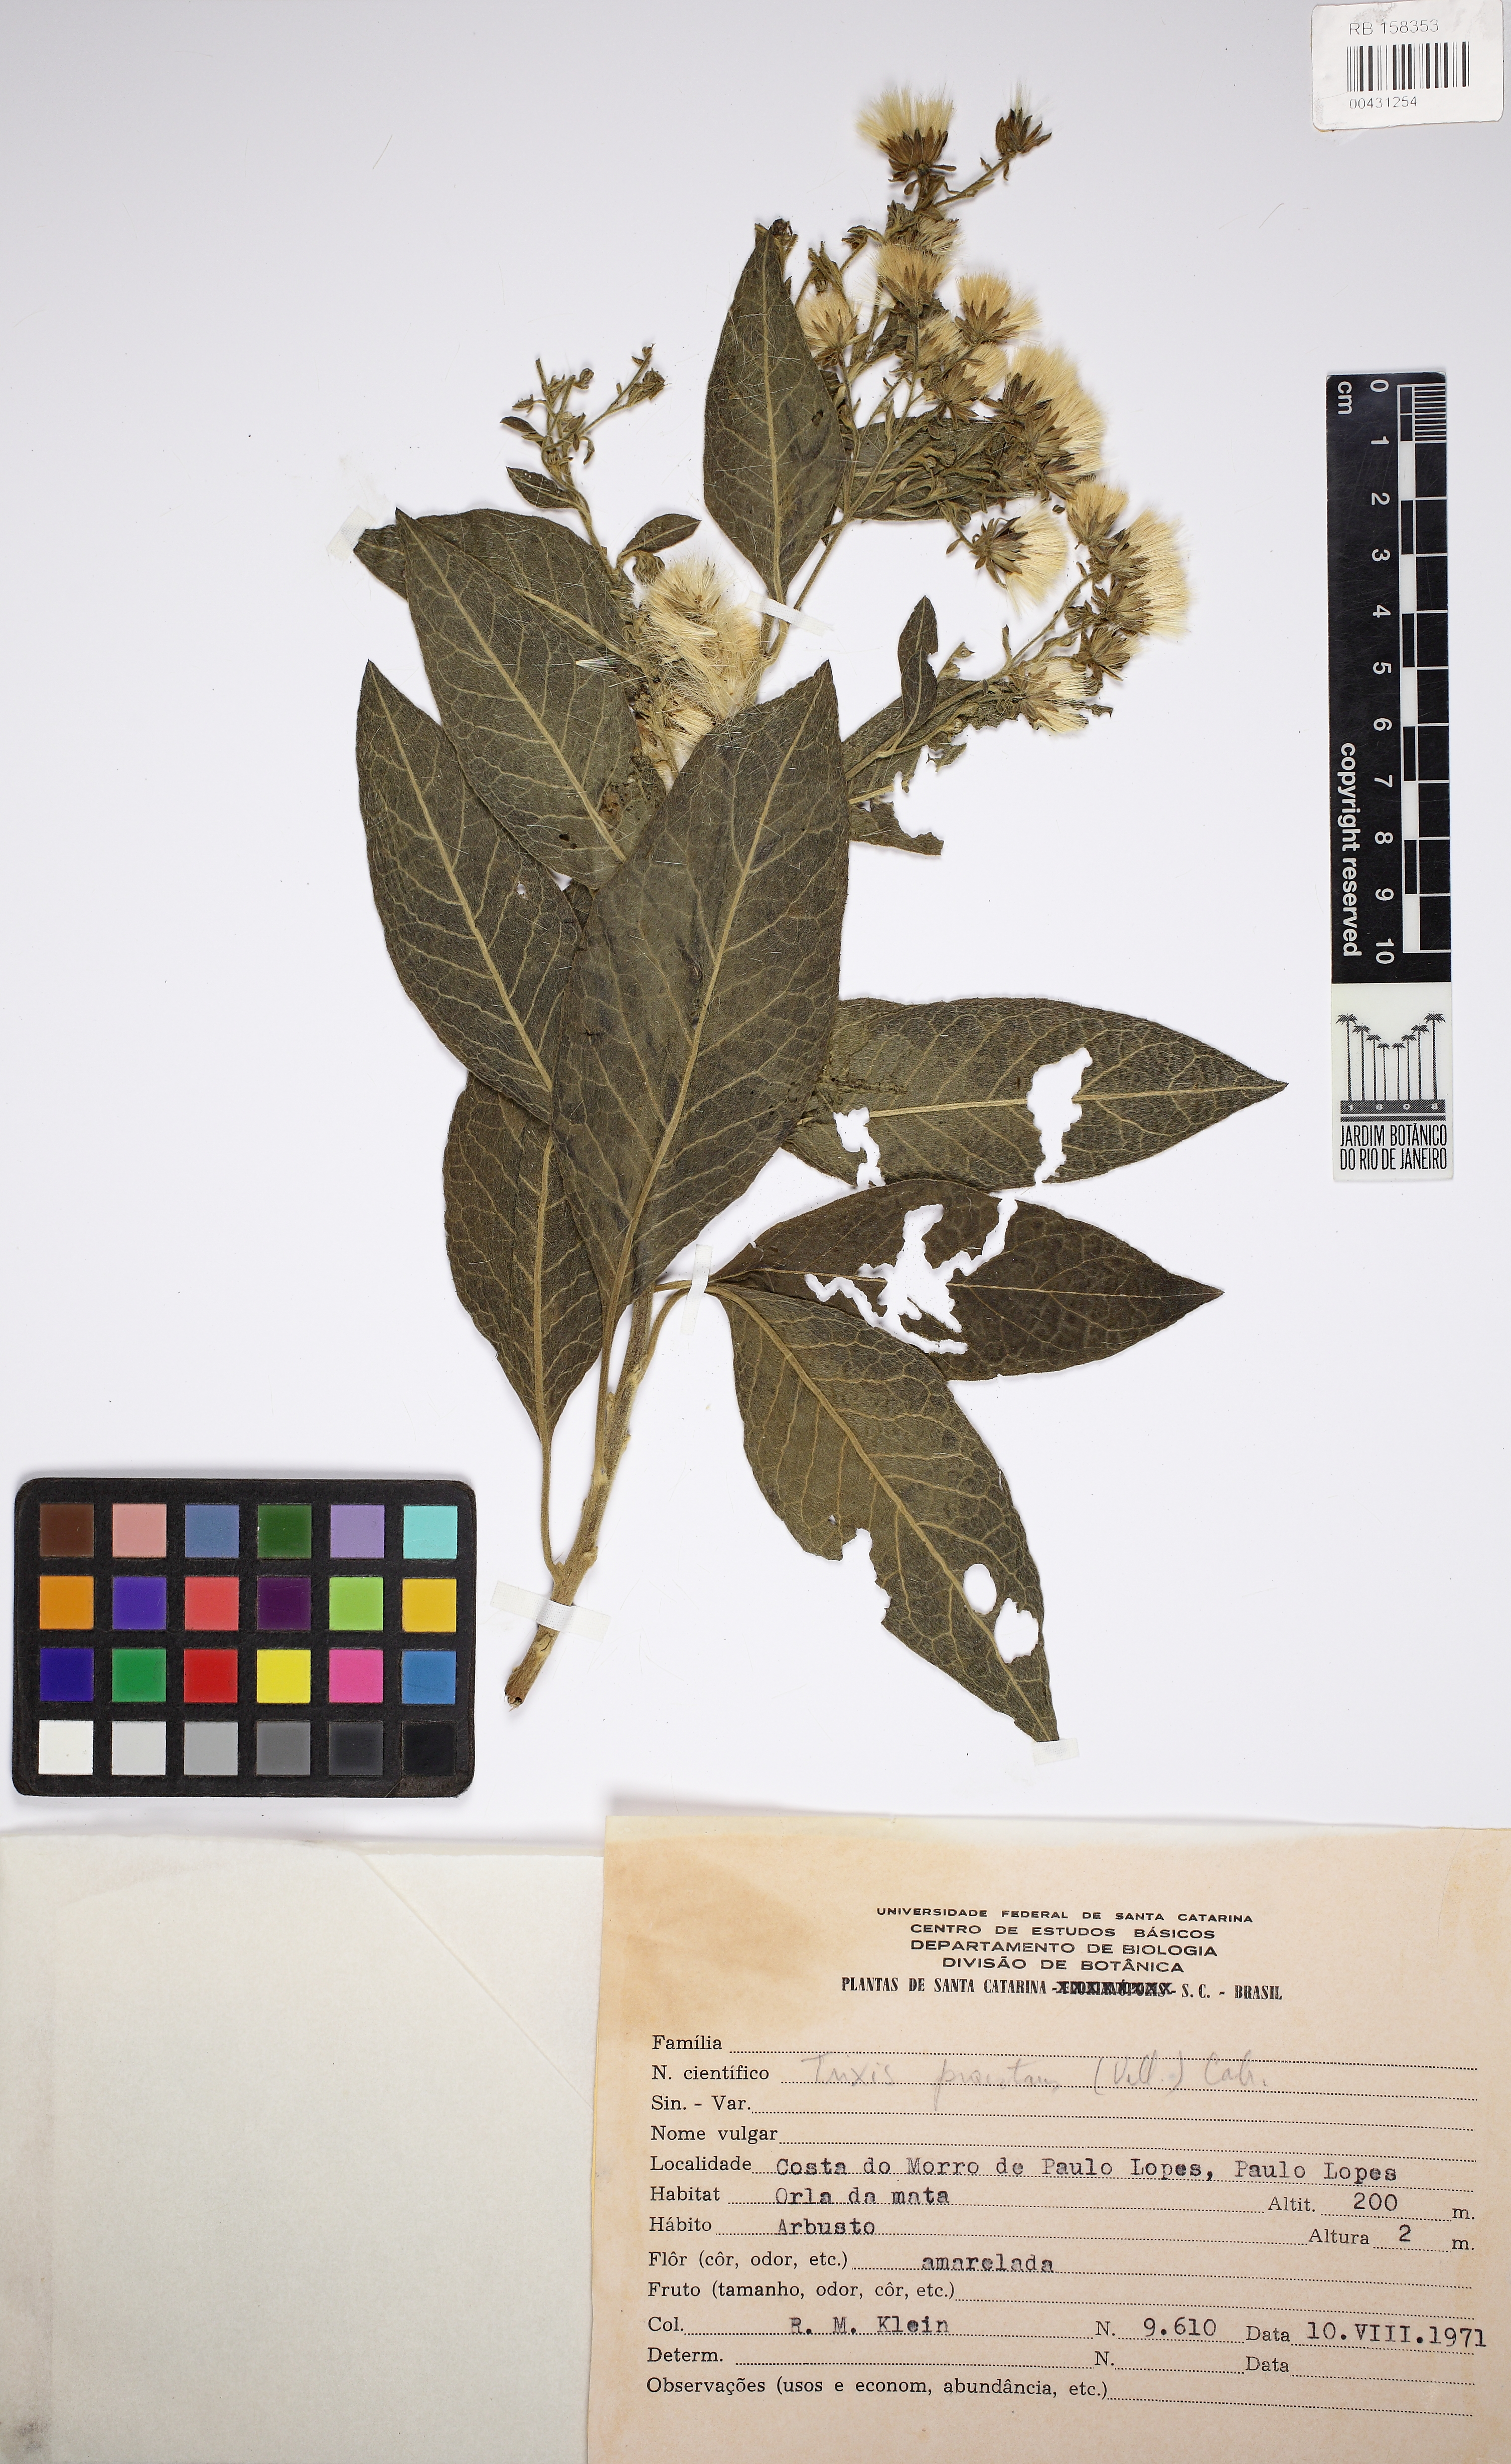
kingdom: Plantae
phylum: Tracheophyta
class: Magnoliopsida
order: Asterales
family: Asteraceae
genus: Trixis
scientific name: Trixis praestans
